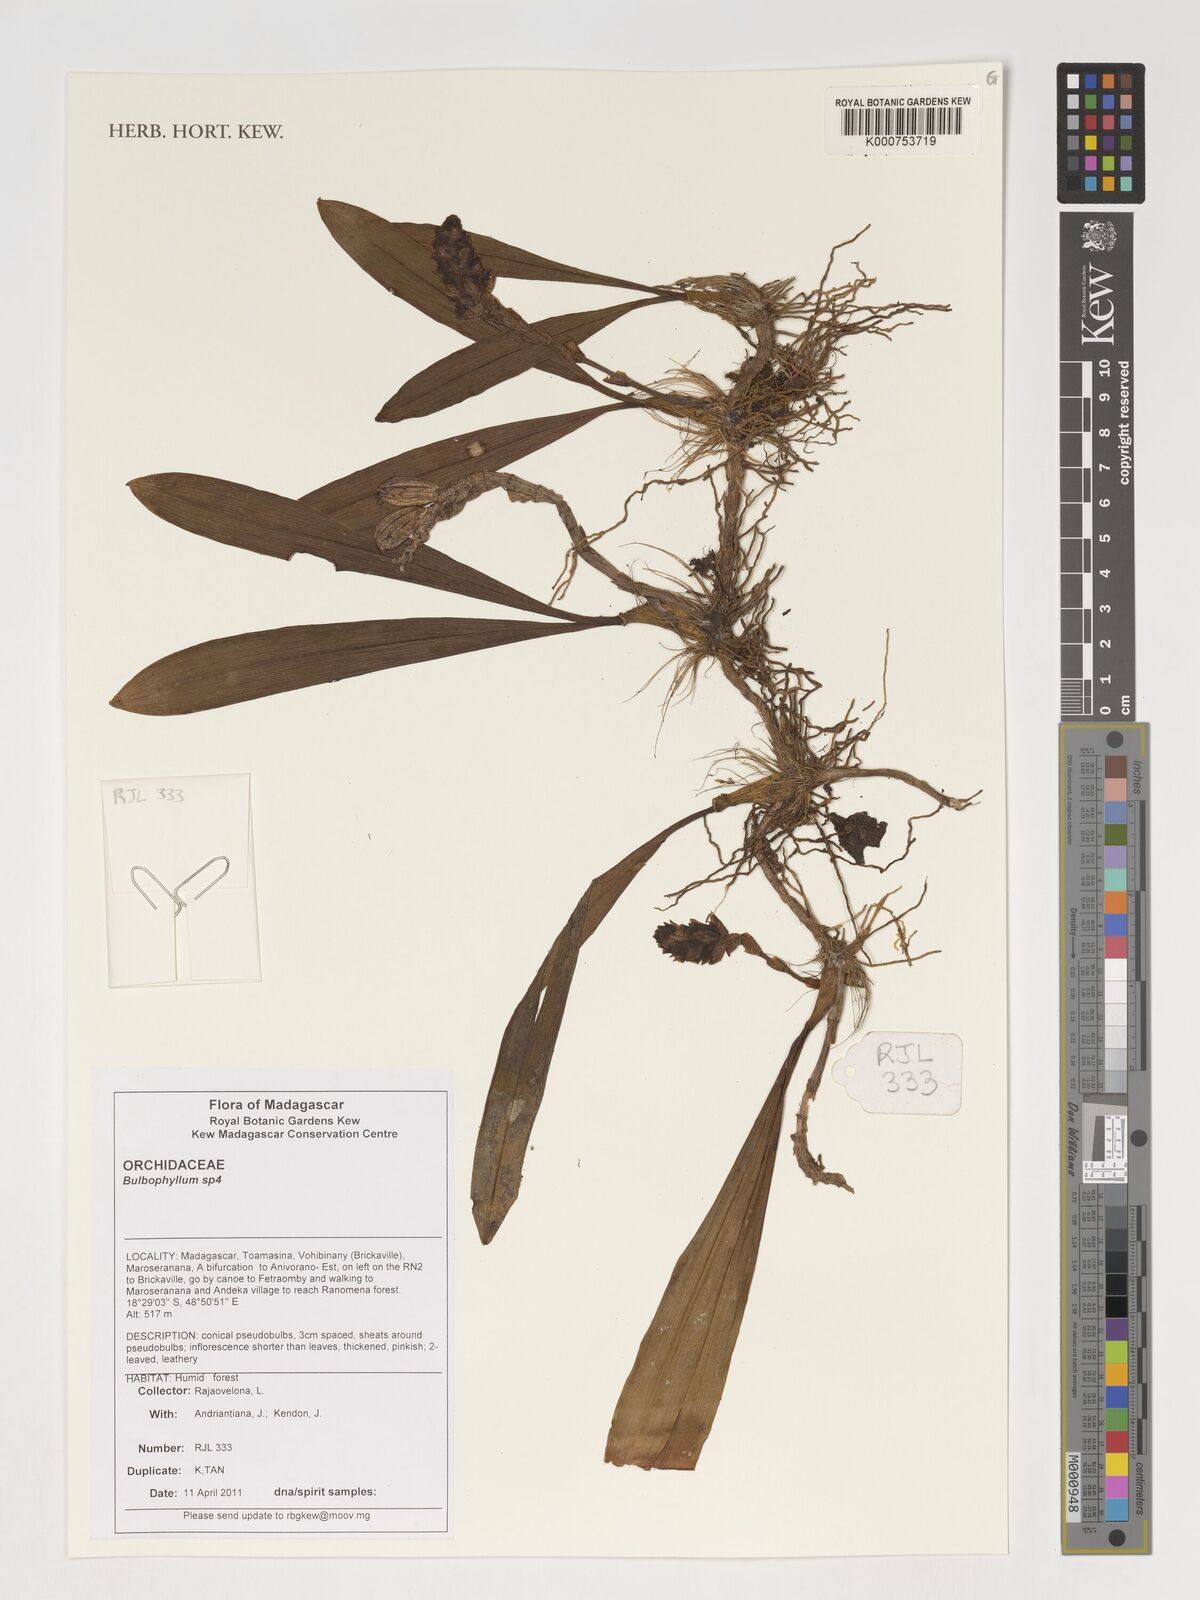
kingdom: Plantae
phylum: Tracheophyta
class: Liliopsida
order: Asparagales
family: Orchidaceae
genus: Bulbophyllum
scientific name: Bulbophyllum
